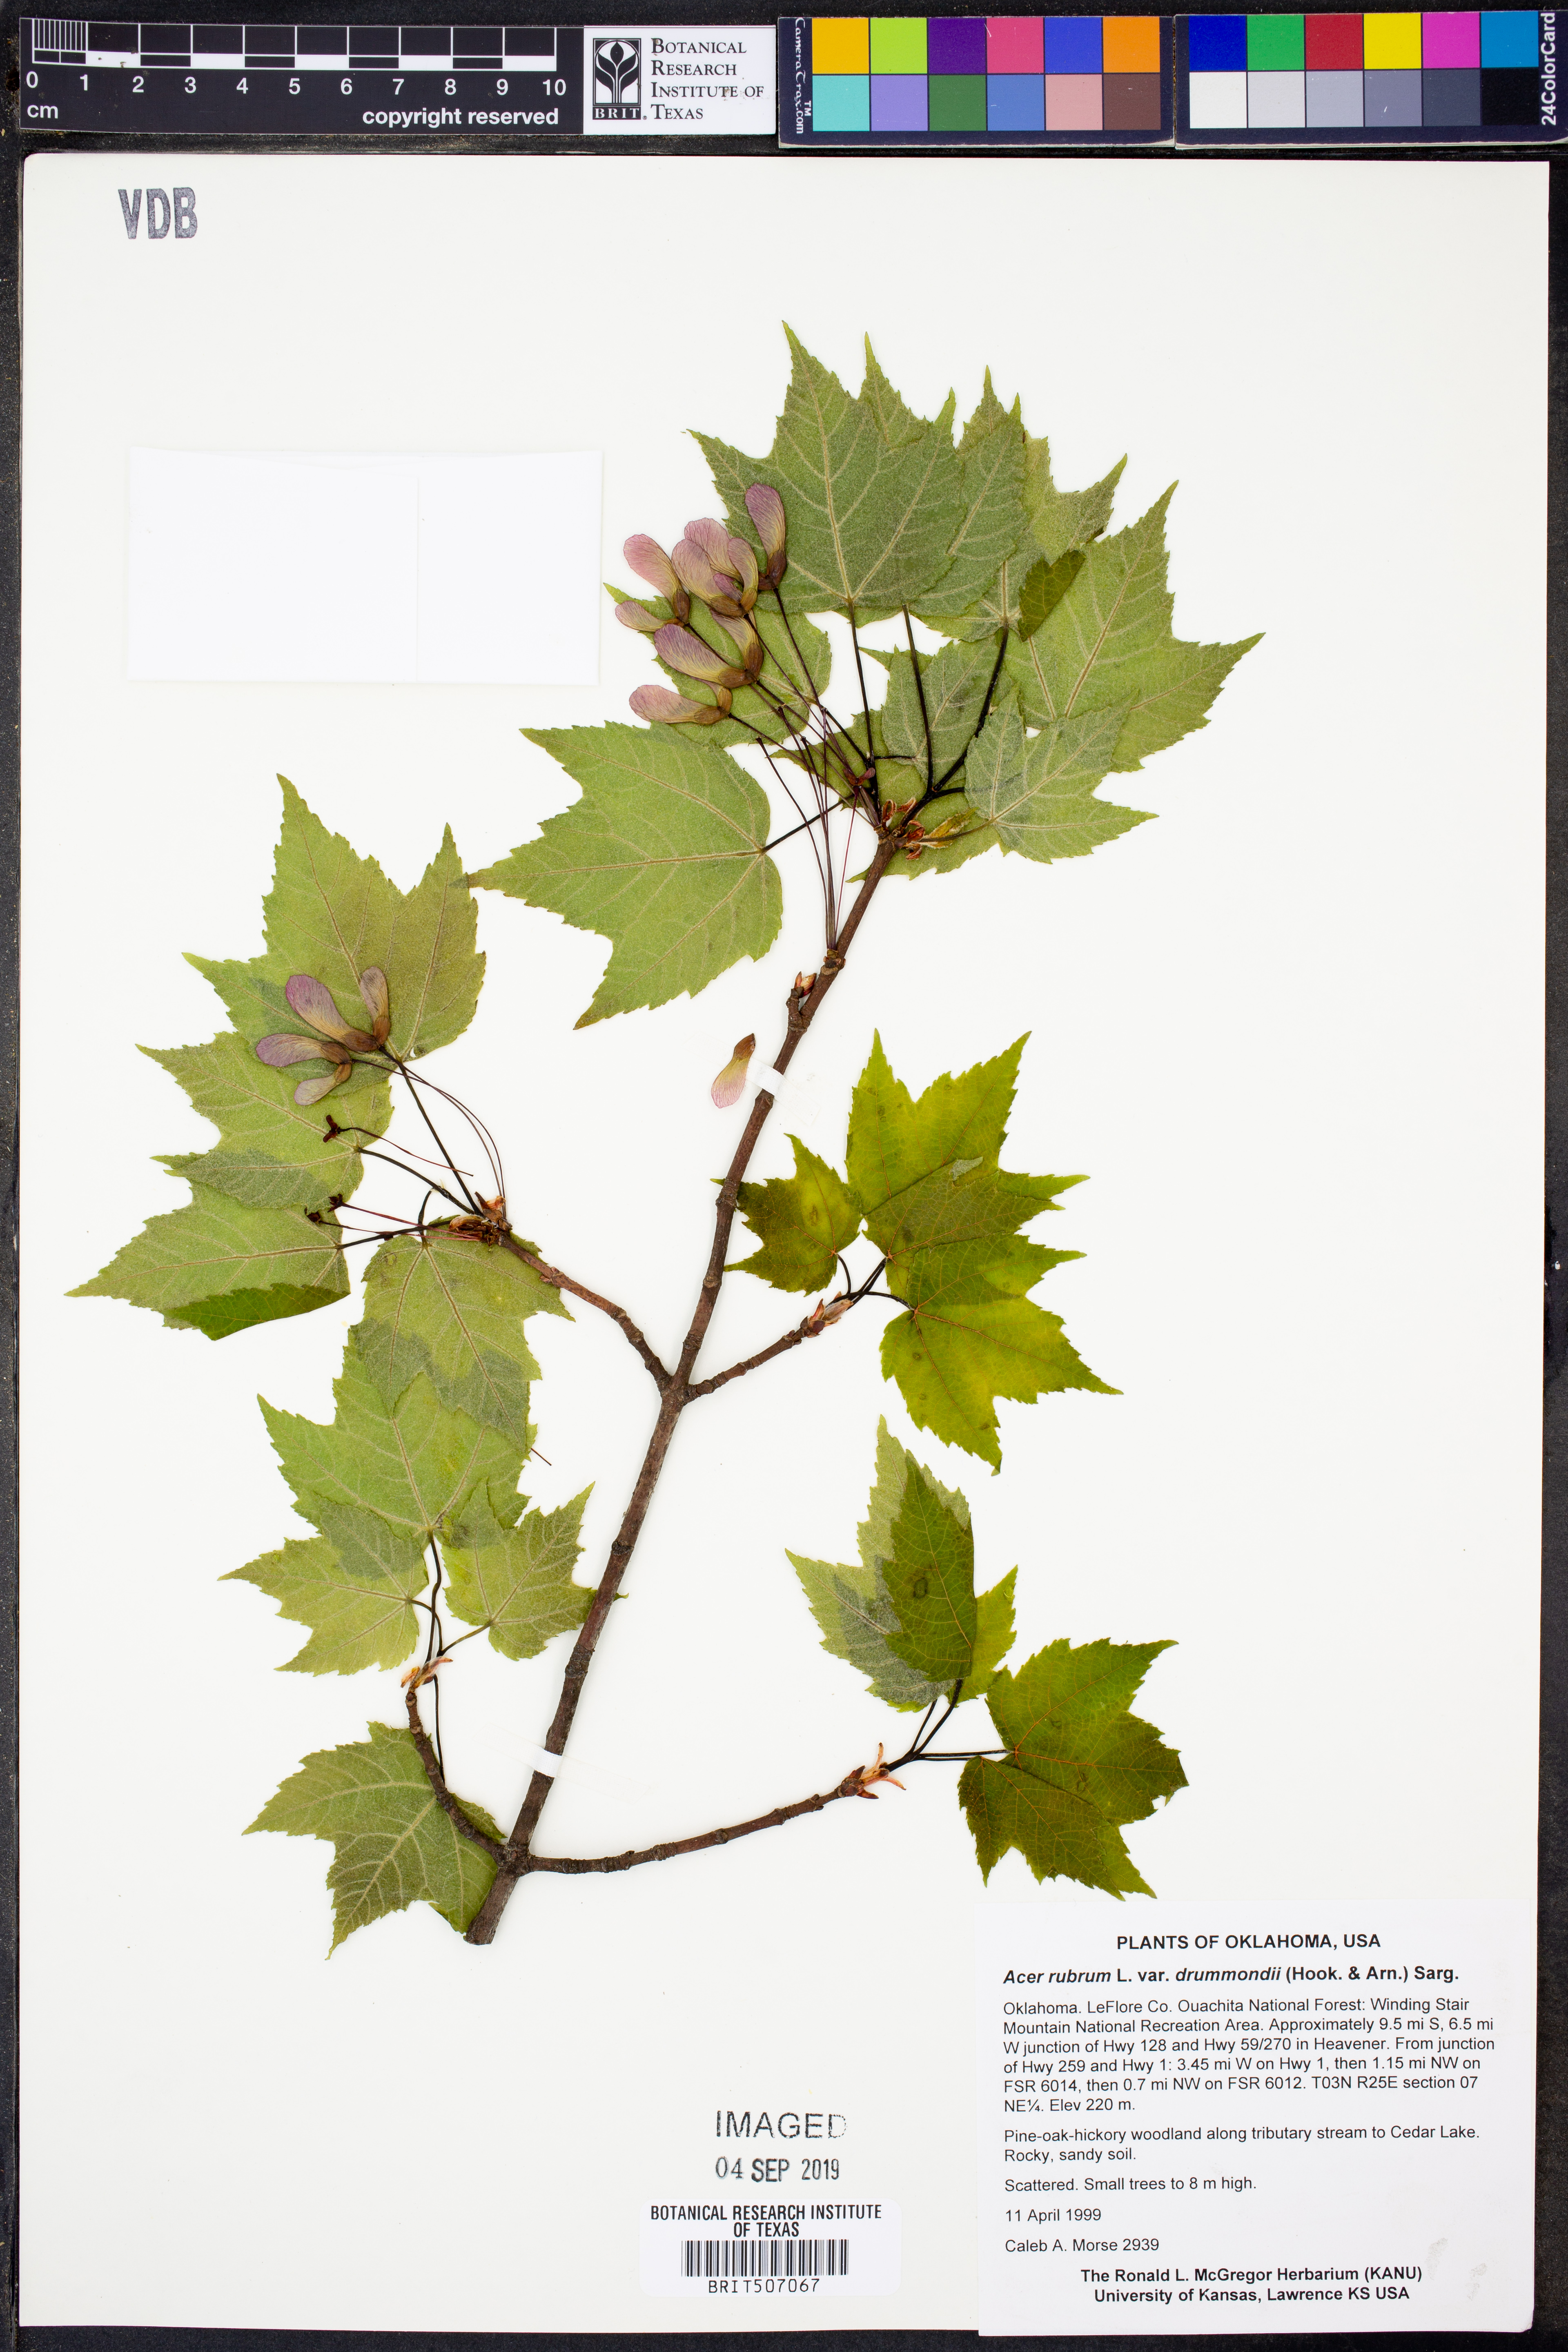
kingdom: Plantae
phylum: Tracheophyta
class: Magnoliopsida
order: Sapindales
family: Sapindaceae
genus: Acer
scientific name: Acer rubrum
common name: Red maple
